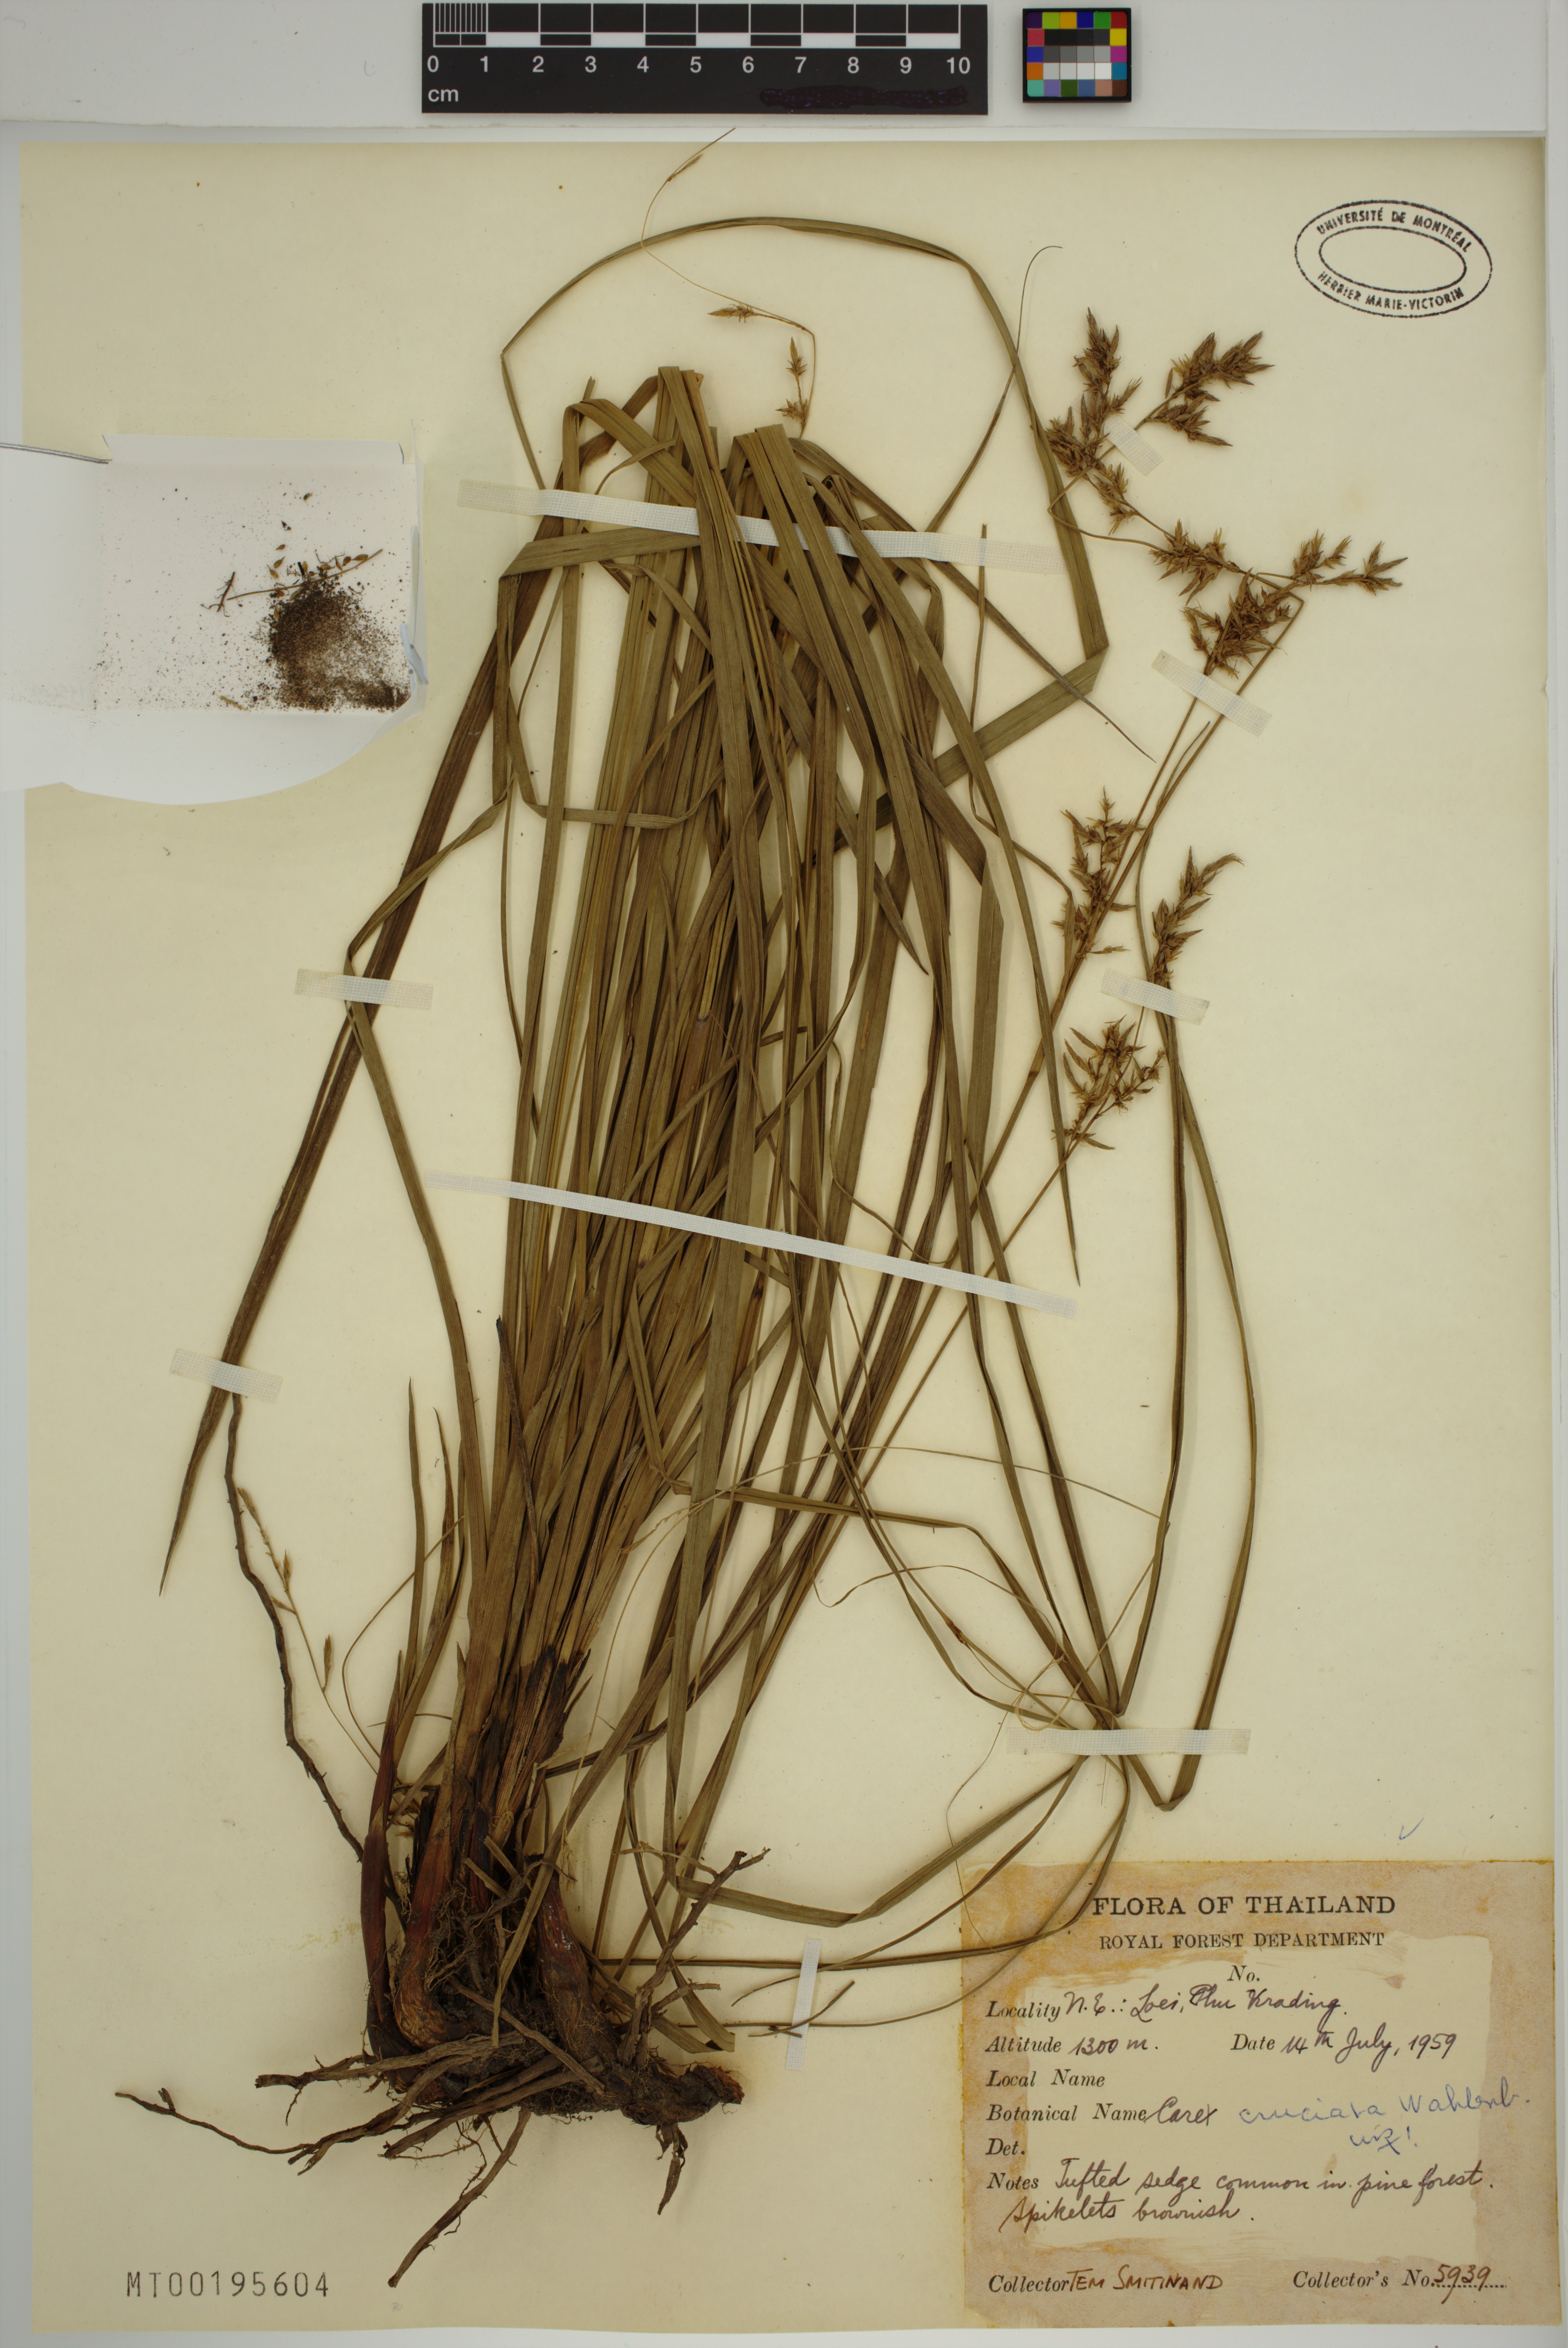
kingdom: Plantae
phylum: Tracheophyta
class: Liliopsida
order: Poales
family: Cyperaceae
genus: Carex
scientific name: Carex cruciata
